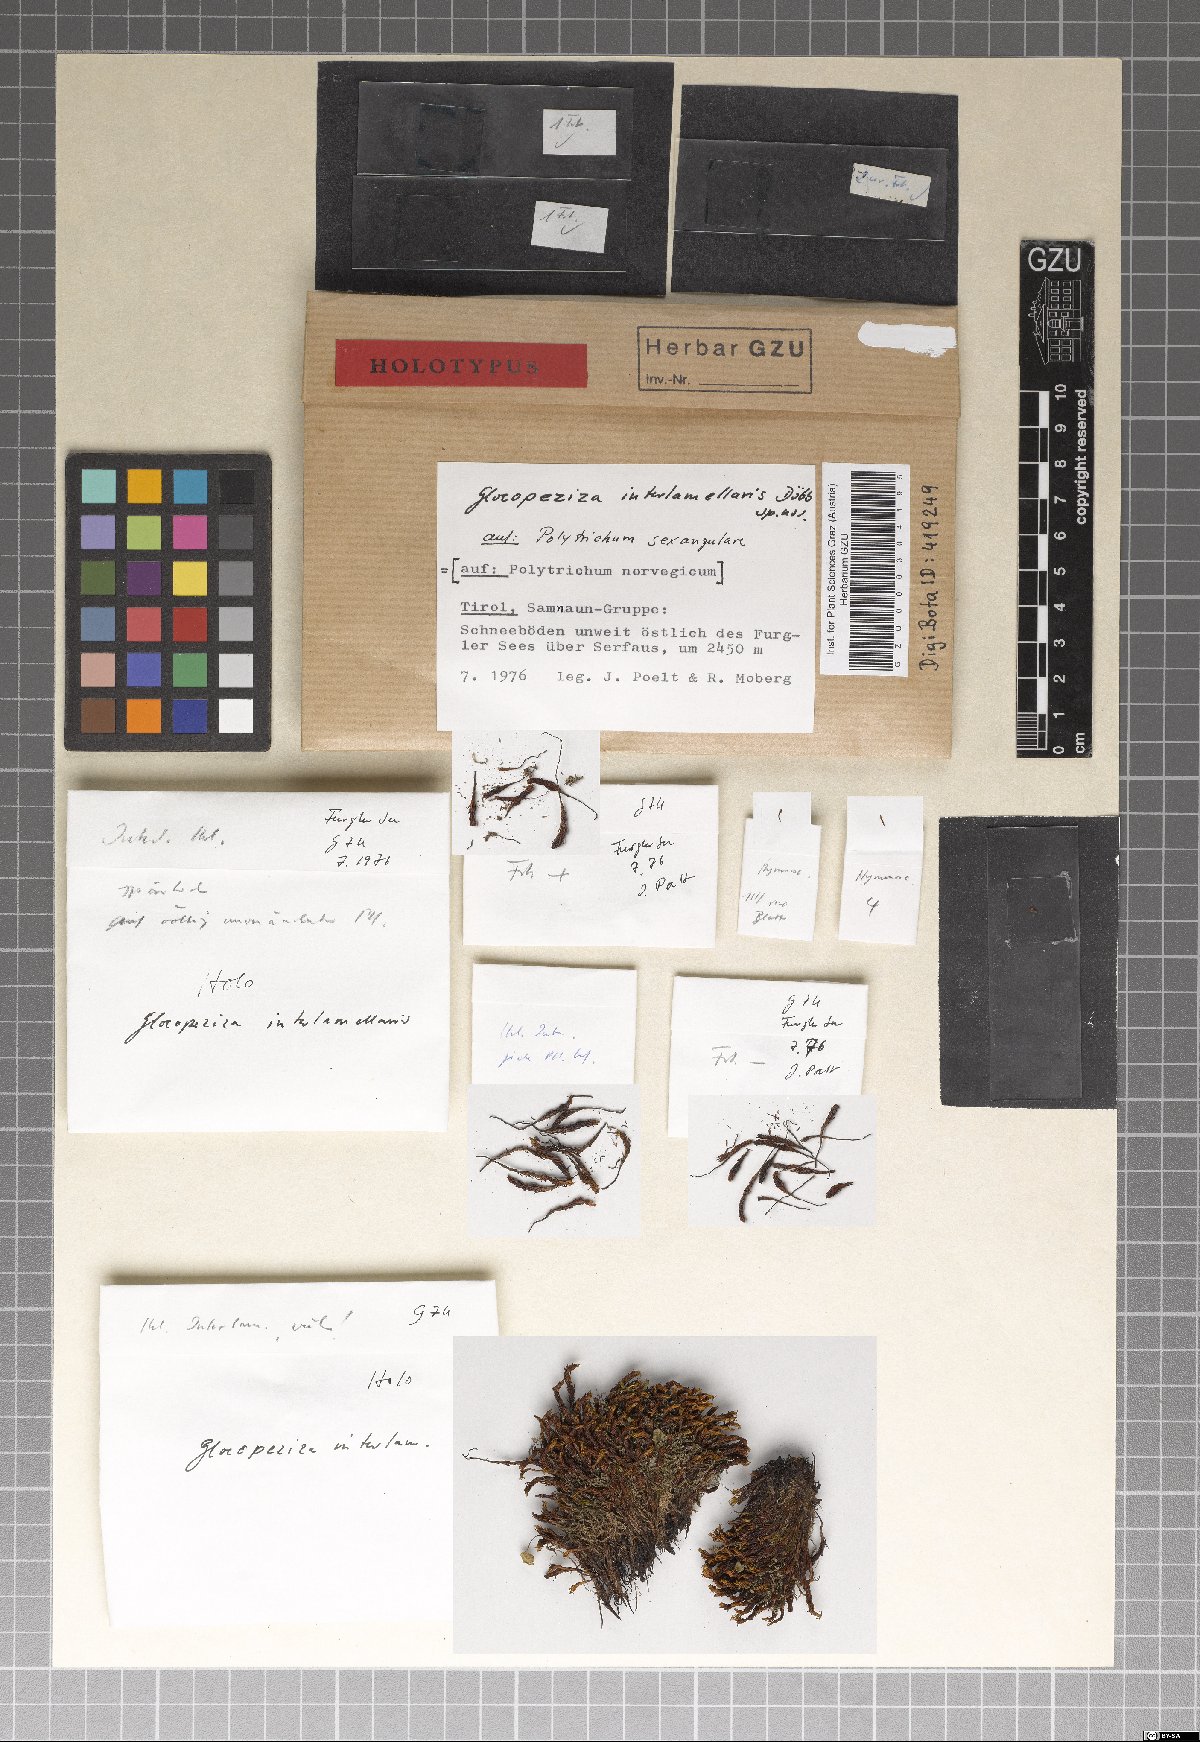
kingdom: Fungi
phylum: Ascomycota
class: Leotiomycetes
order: Helotiales
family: Helotiaceae
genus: Gloeopeziza
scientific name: Gloeopeziza interlamellaris
